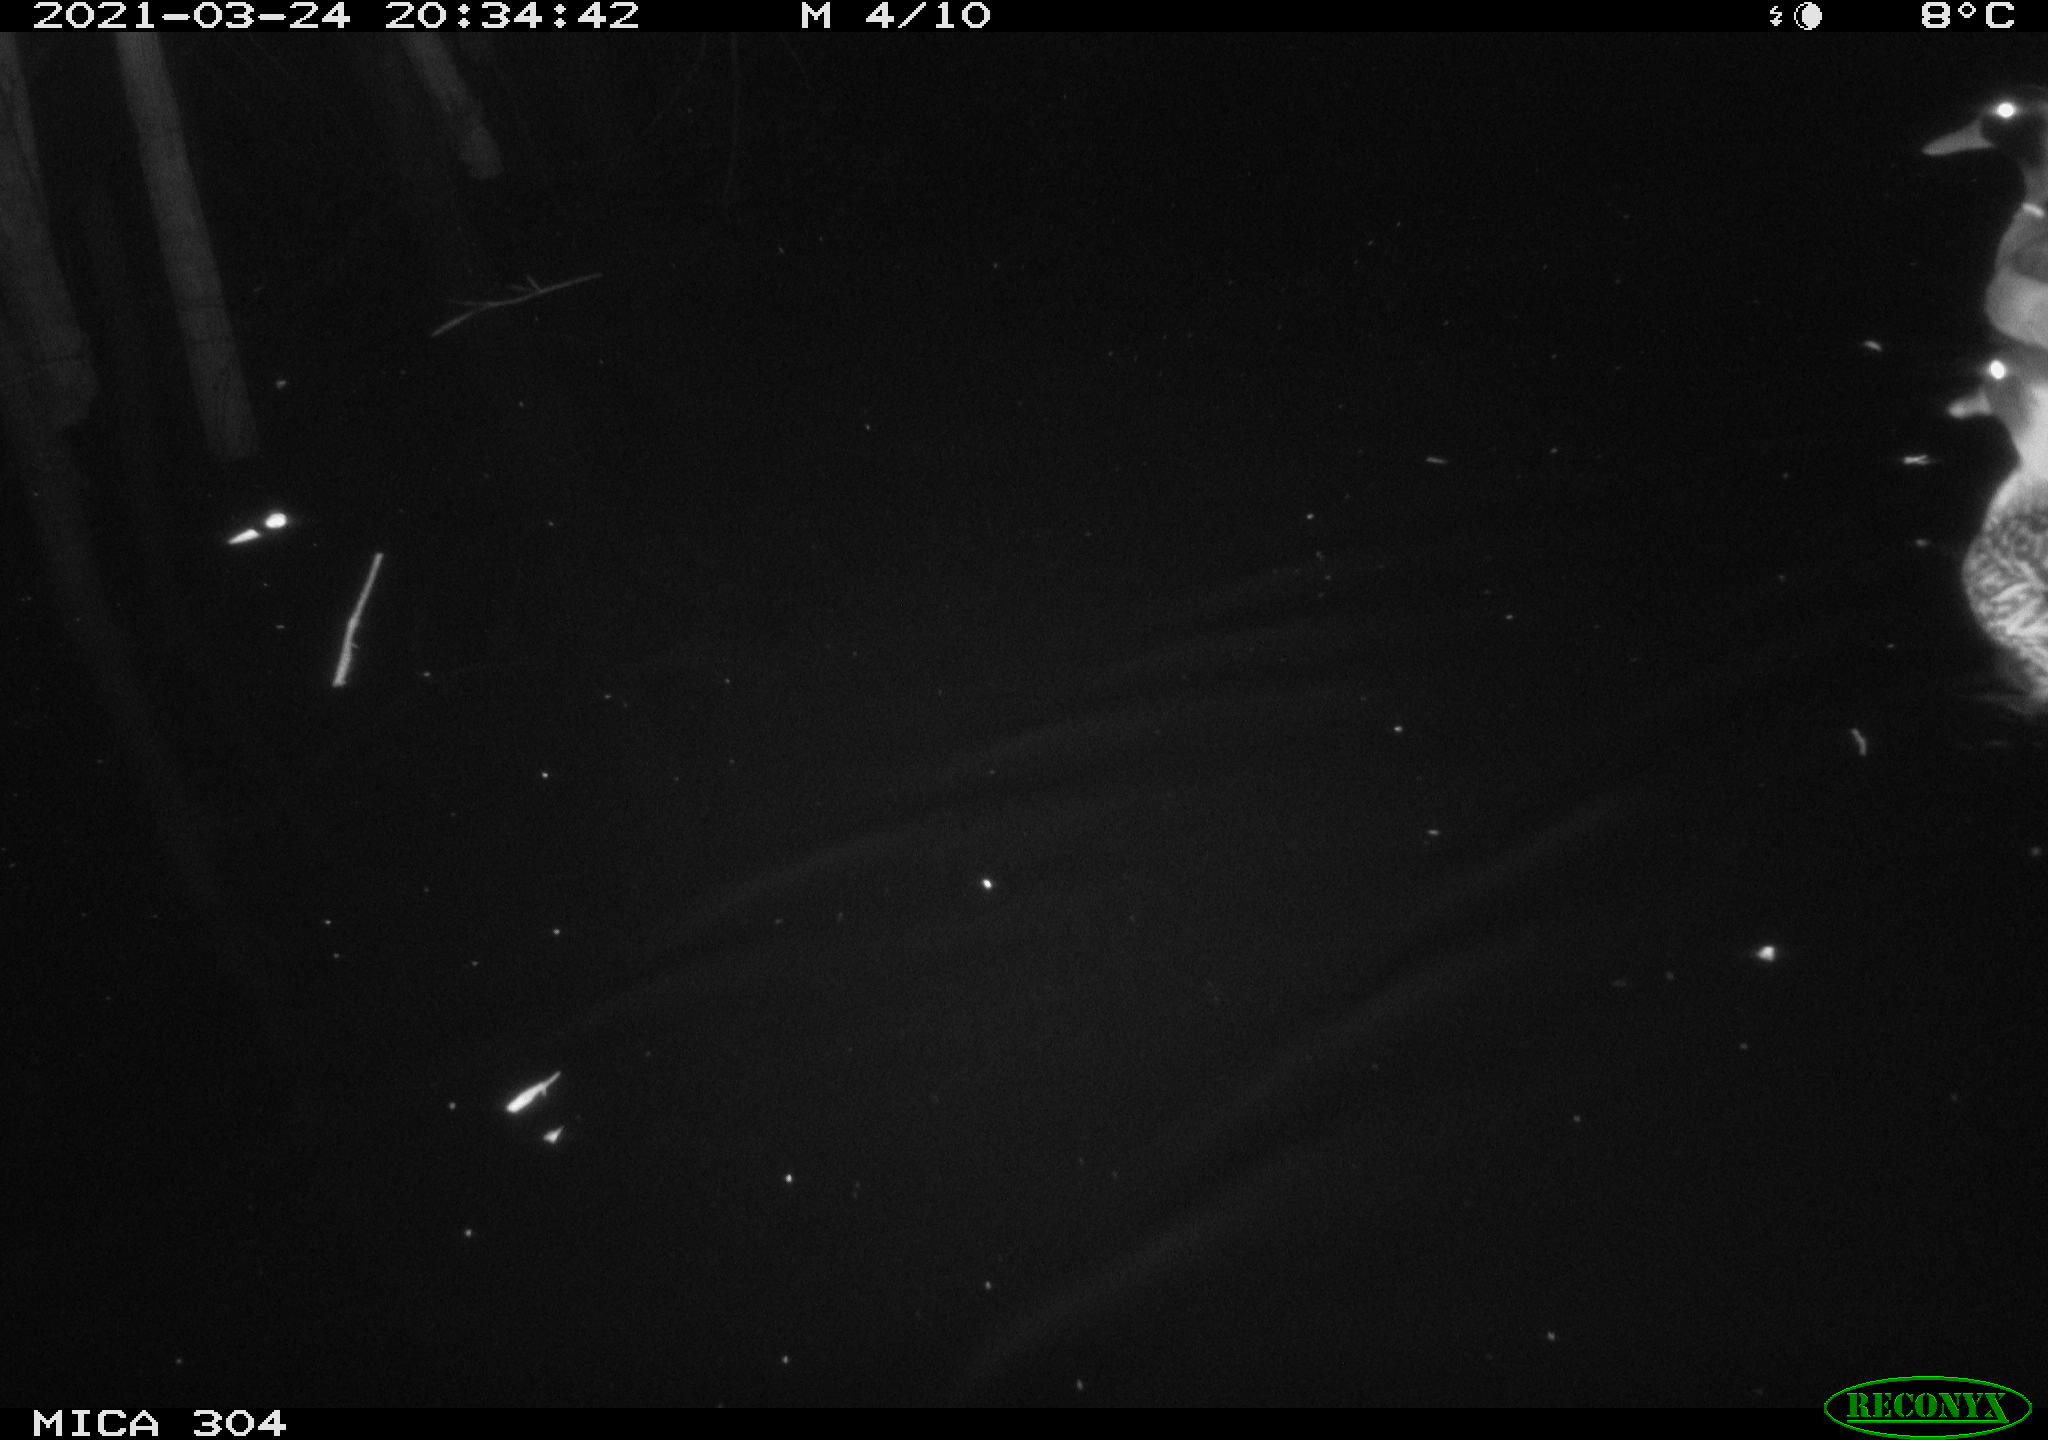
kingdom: Animalia
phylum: Chordata
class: Aves
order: Anseriformes
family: Anatidae
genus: Anas
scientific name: Anas platyrhynchos
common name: Mallard
